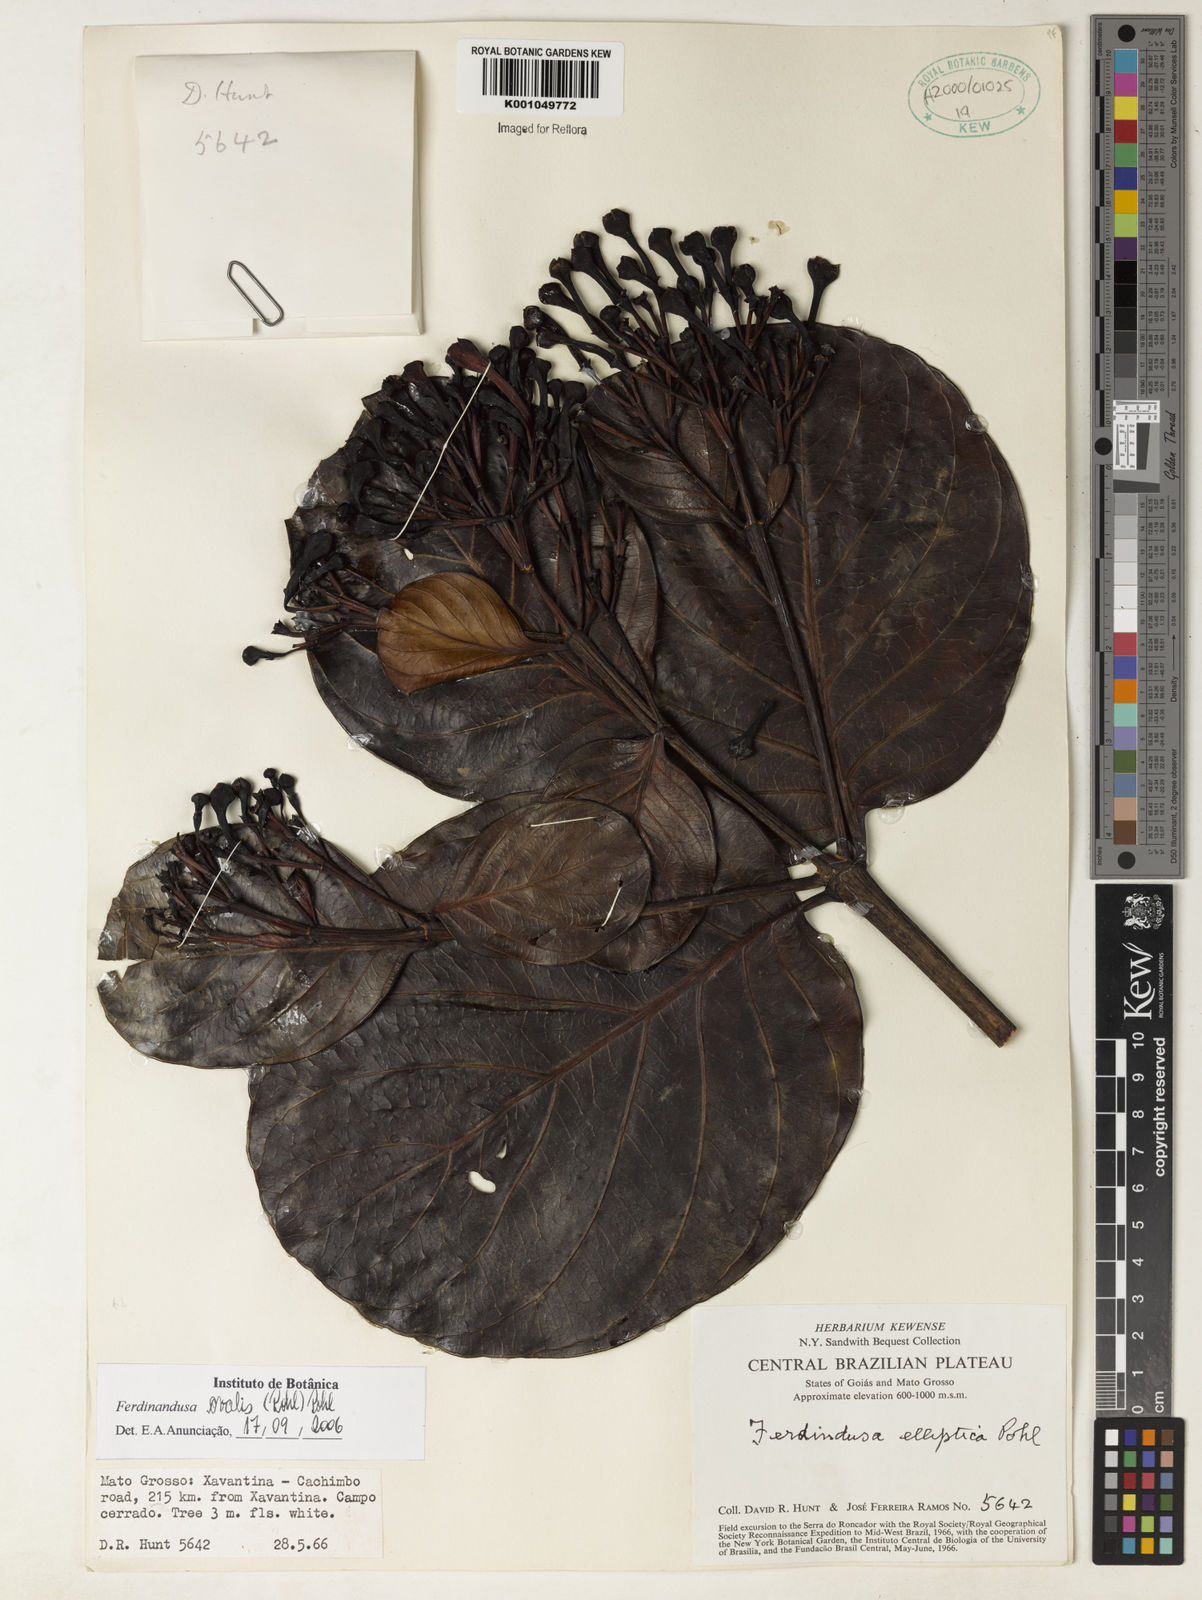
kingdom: Plantae
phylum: Tracheophyta
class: Magnoliopsida
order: Gentianales
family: Rubiaceae
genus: Ferdinandusa
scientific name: Ferdinandusa elliptica
